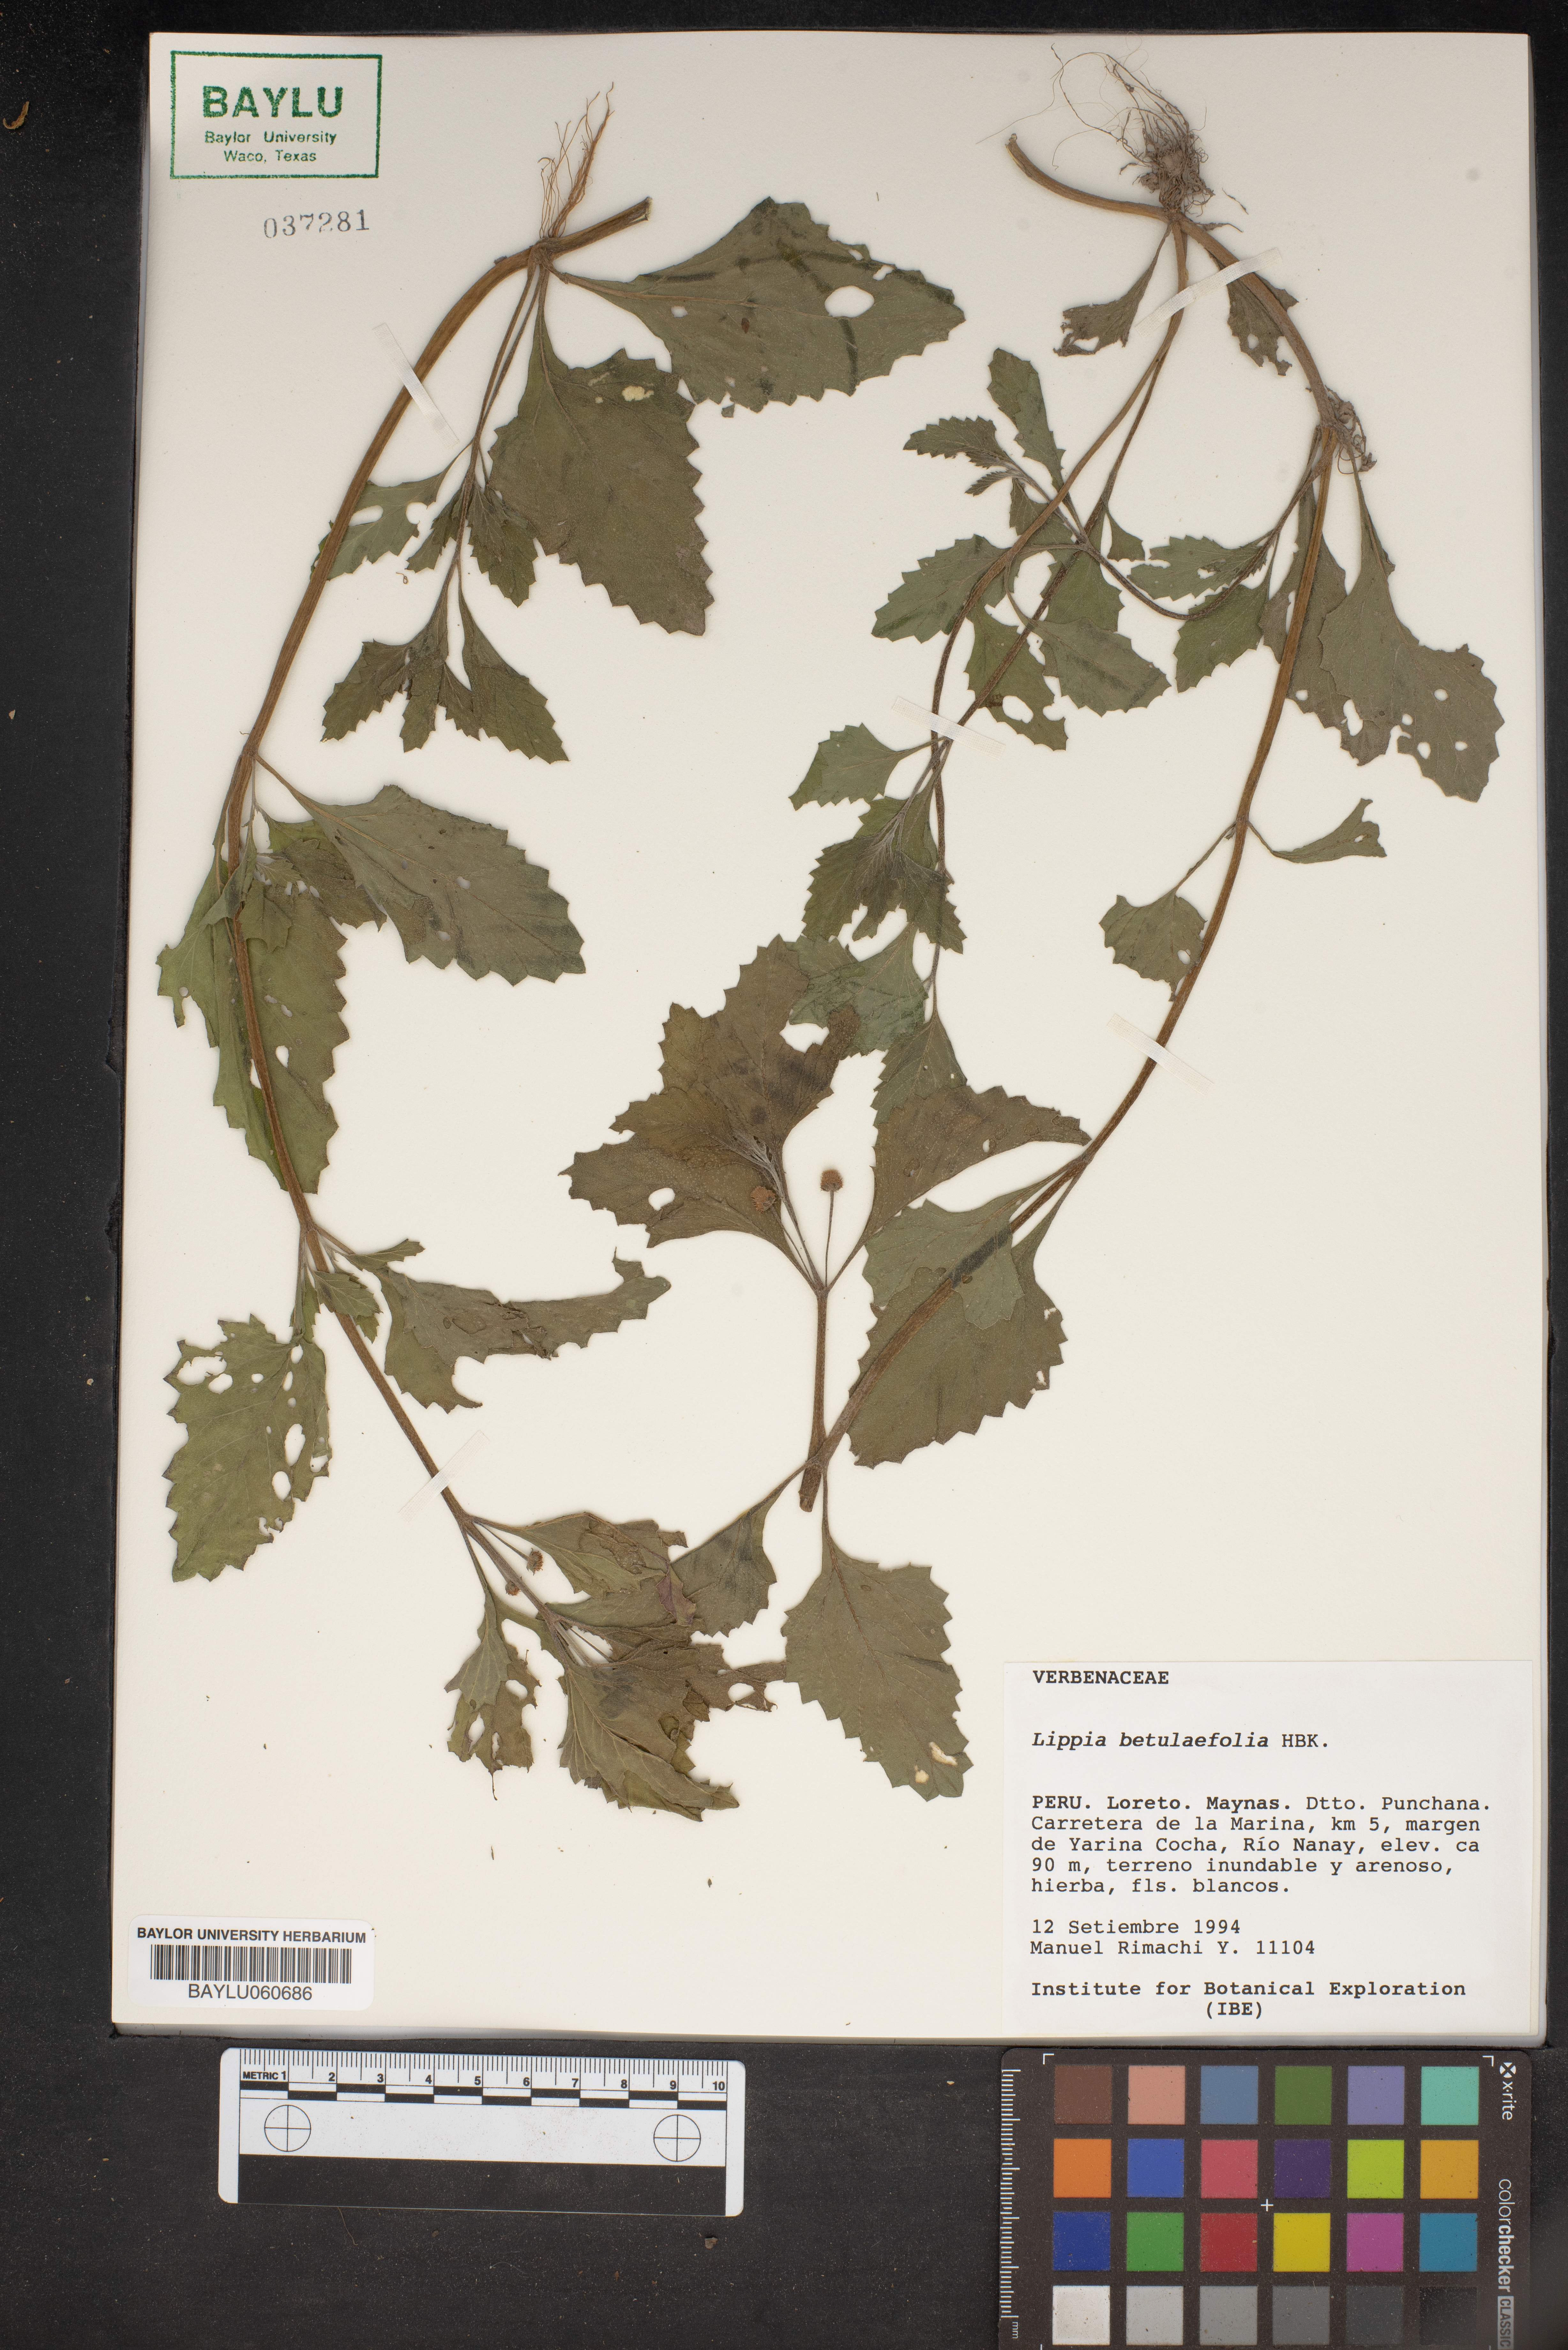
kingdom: Plantae
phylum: Tracheophyta
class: Magnoliopsida
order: Lamiales
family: Verbenaceae
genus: Phyla
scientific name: Phyla betulifolia
